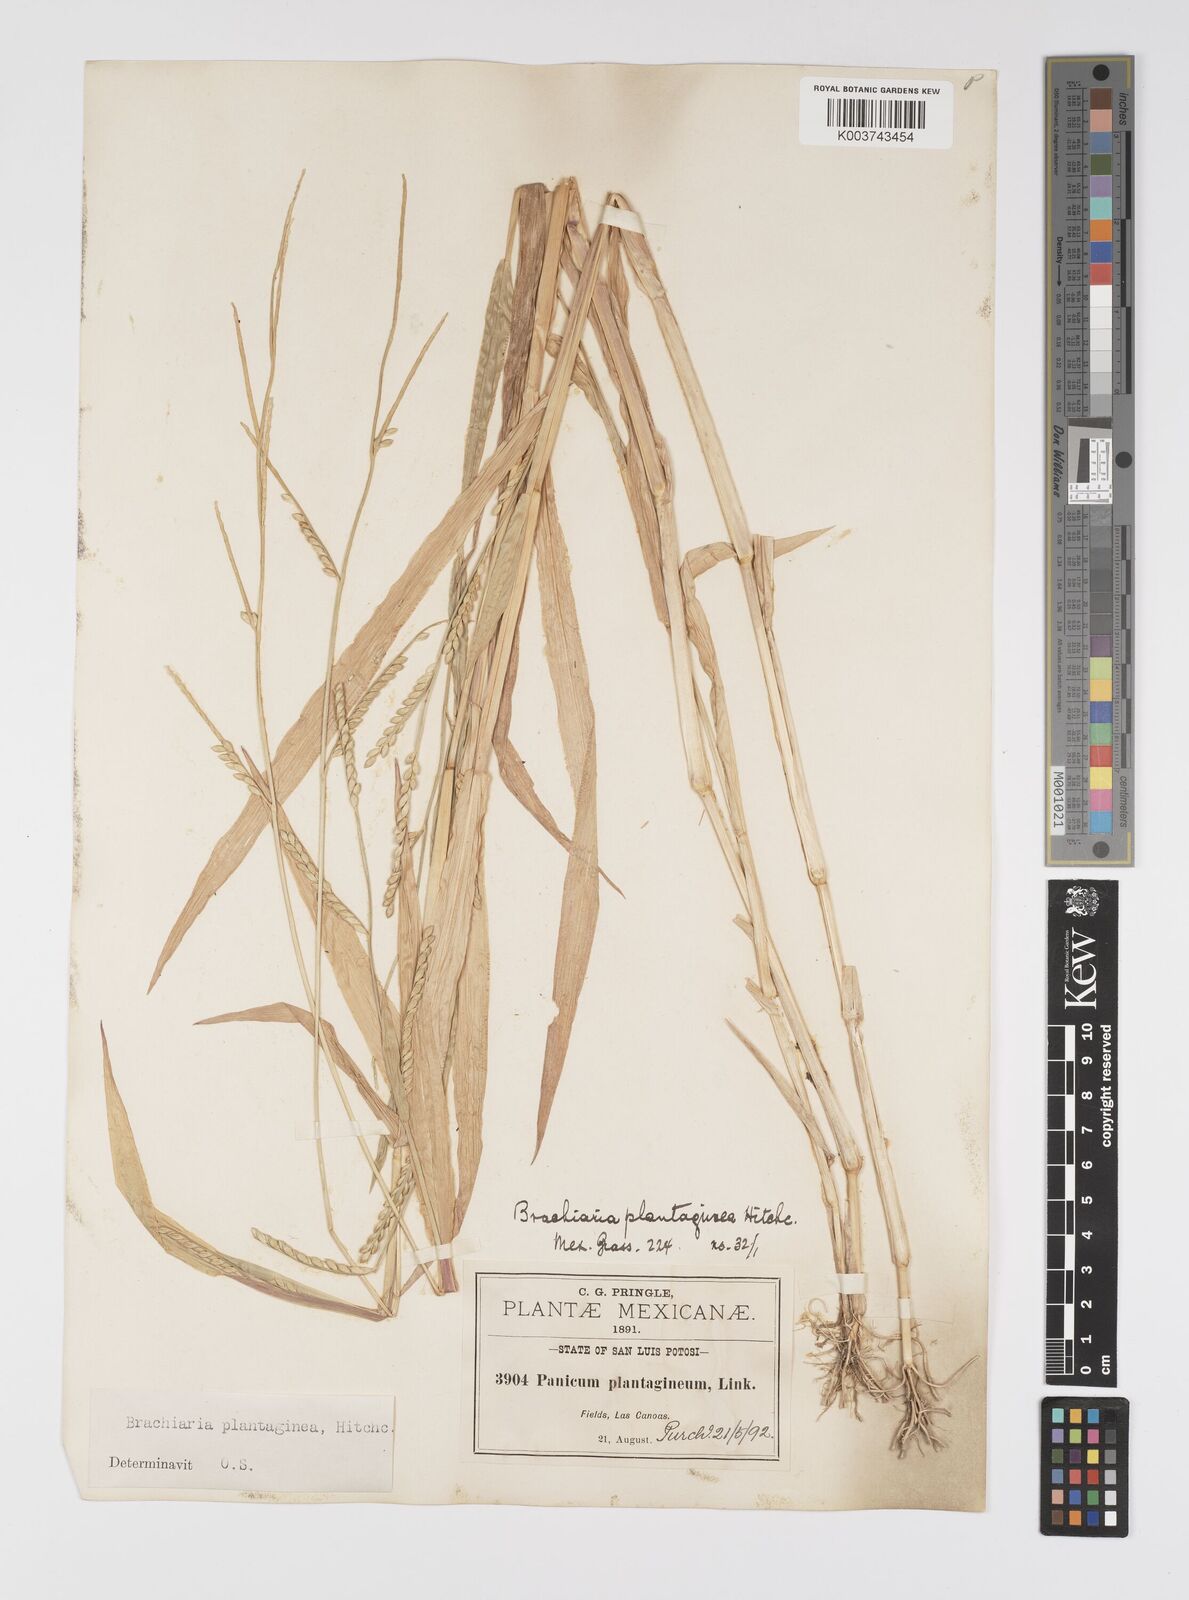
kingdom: Plantae
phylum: Tracheophyta
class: Liliopsida
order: Poales
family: Poaceae
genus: Urochloa
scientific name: Urochloa plantaginea
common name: Plantain signalgrass
